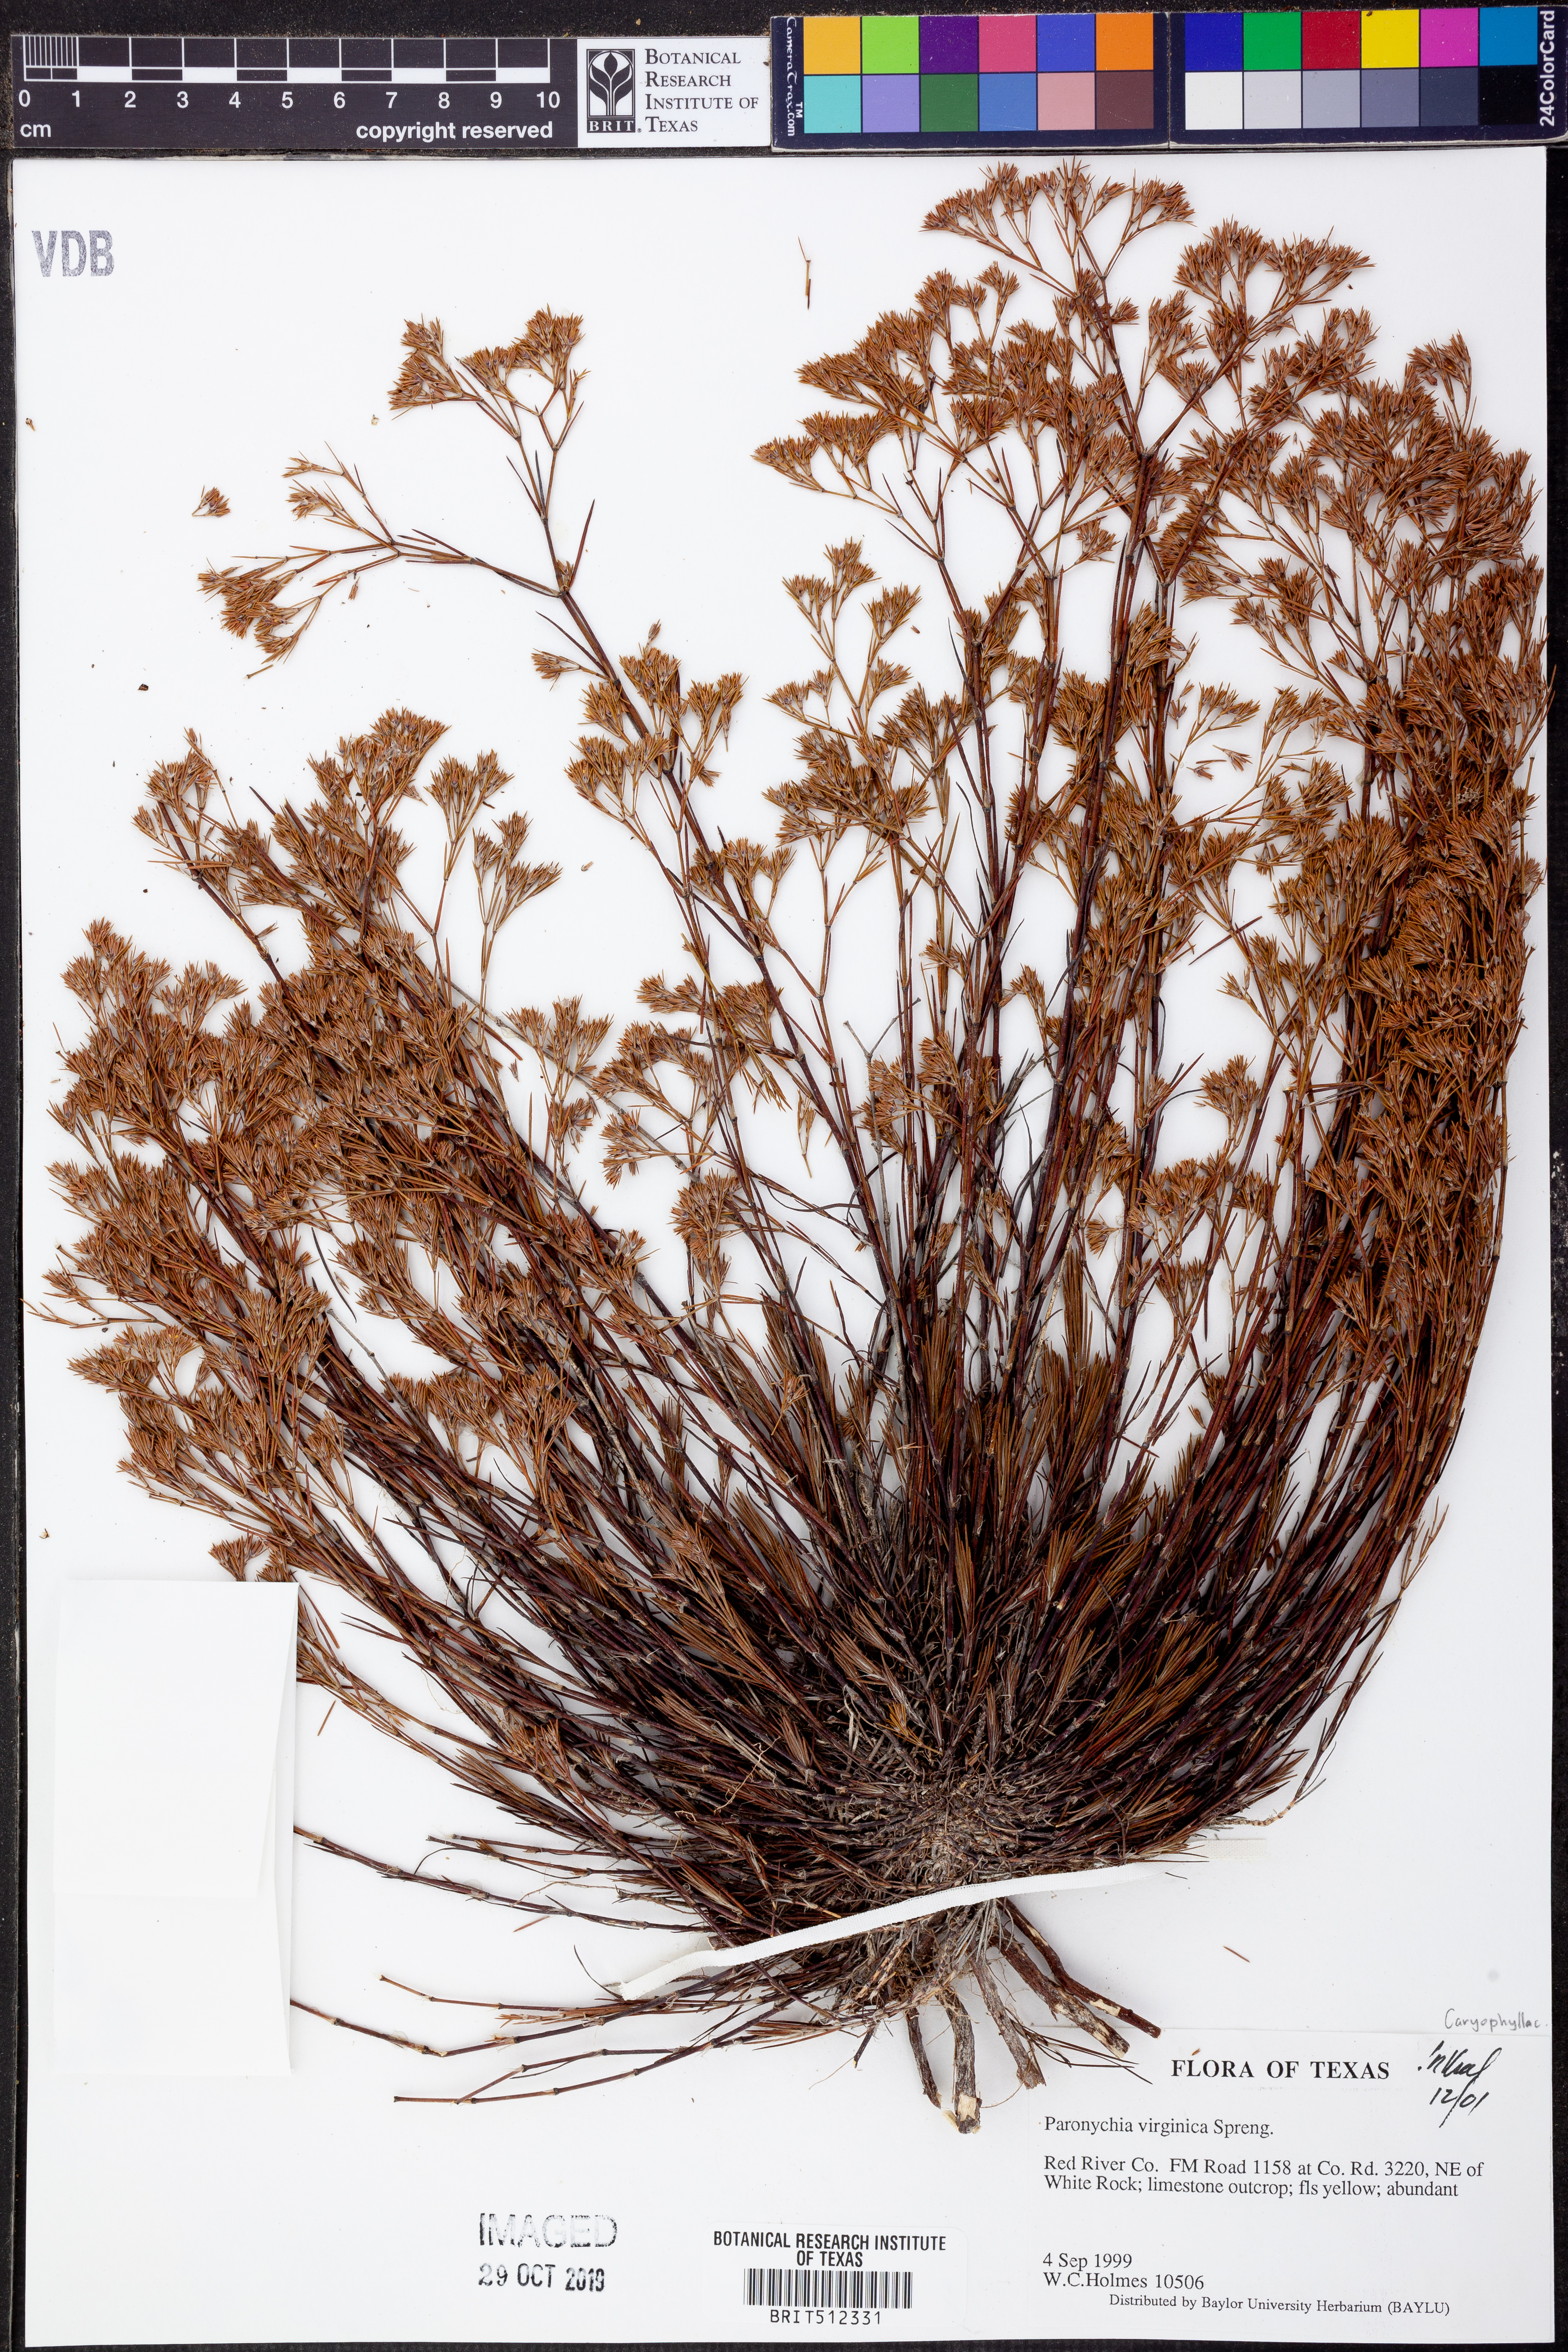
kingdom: Plantae
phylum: Tracheophyta
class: Magnoliopsida
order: Caryophyllales
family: Caryophyllaceae
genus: Paronychia
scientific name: Paronychia virginica
